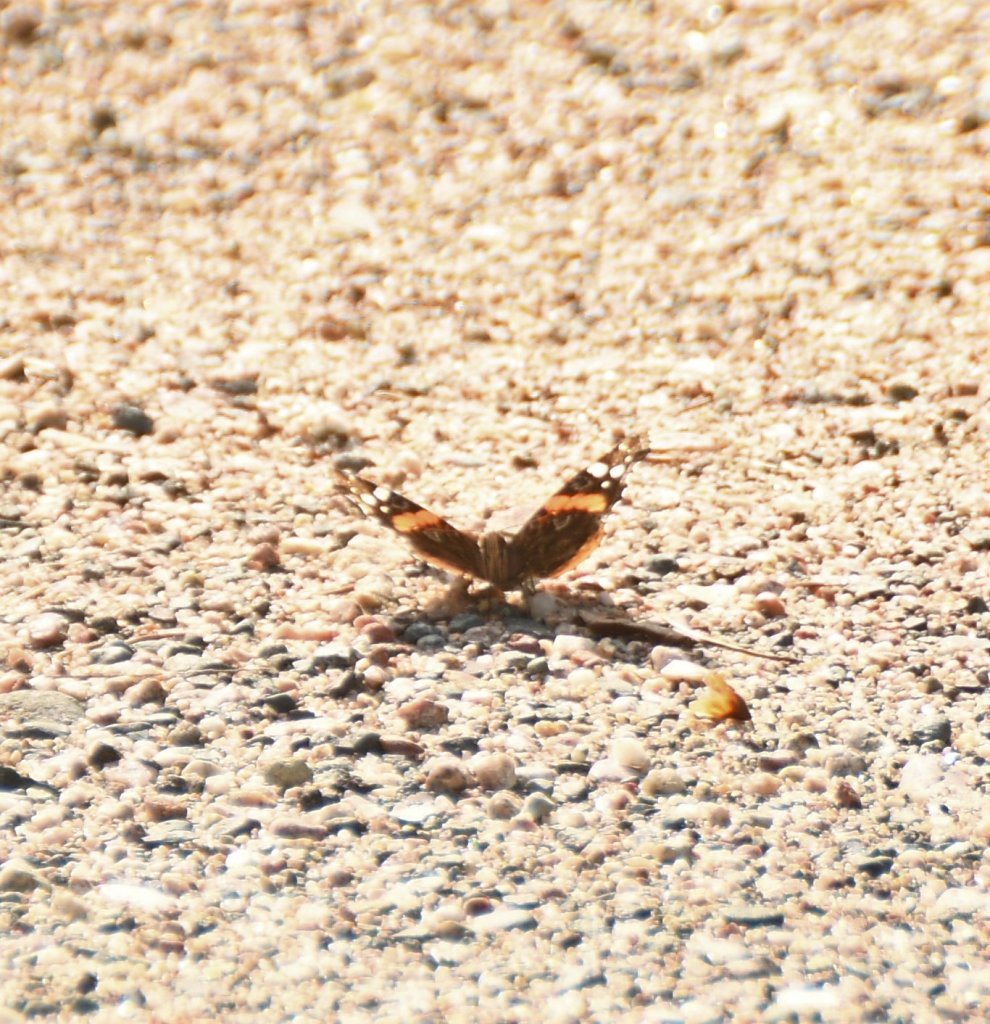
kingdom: Animalia
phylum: Arthropoda
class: Insecta
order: Lepidoptera
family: Nymphalidae
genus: Vanessa
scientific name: Vanessa atalanta
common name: Red Admiral
